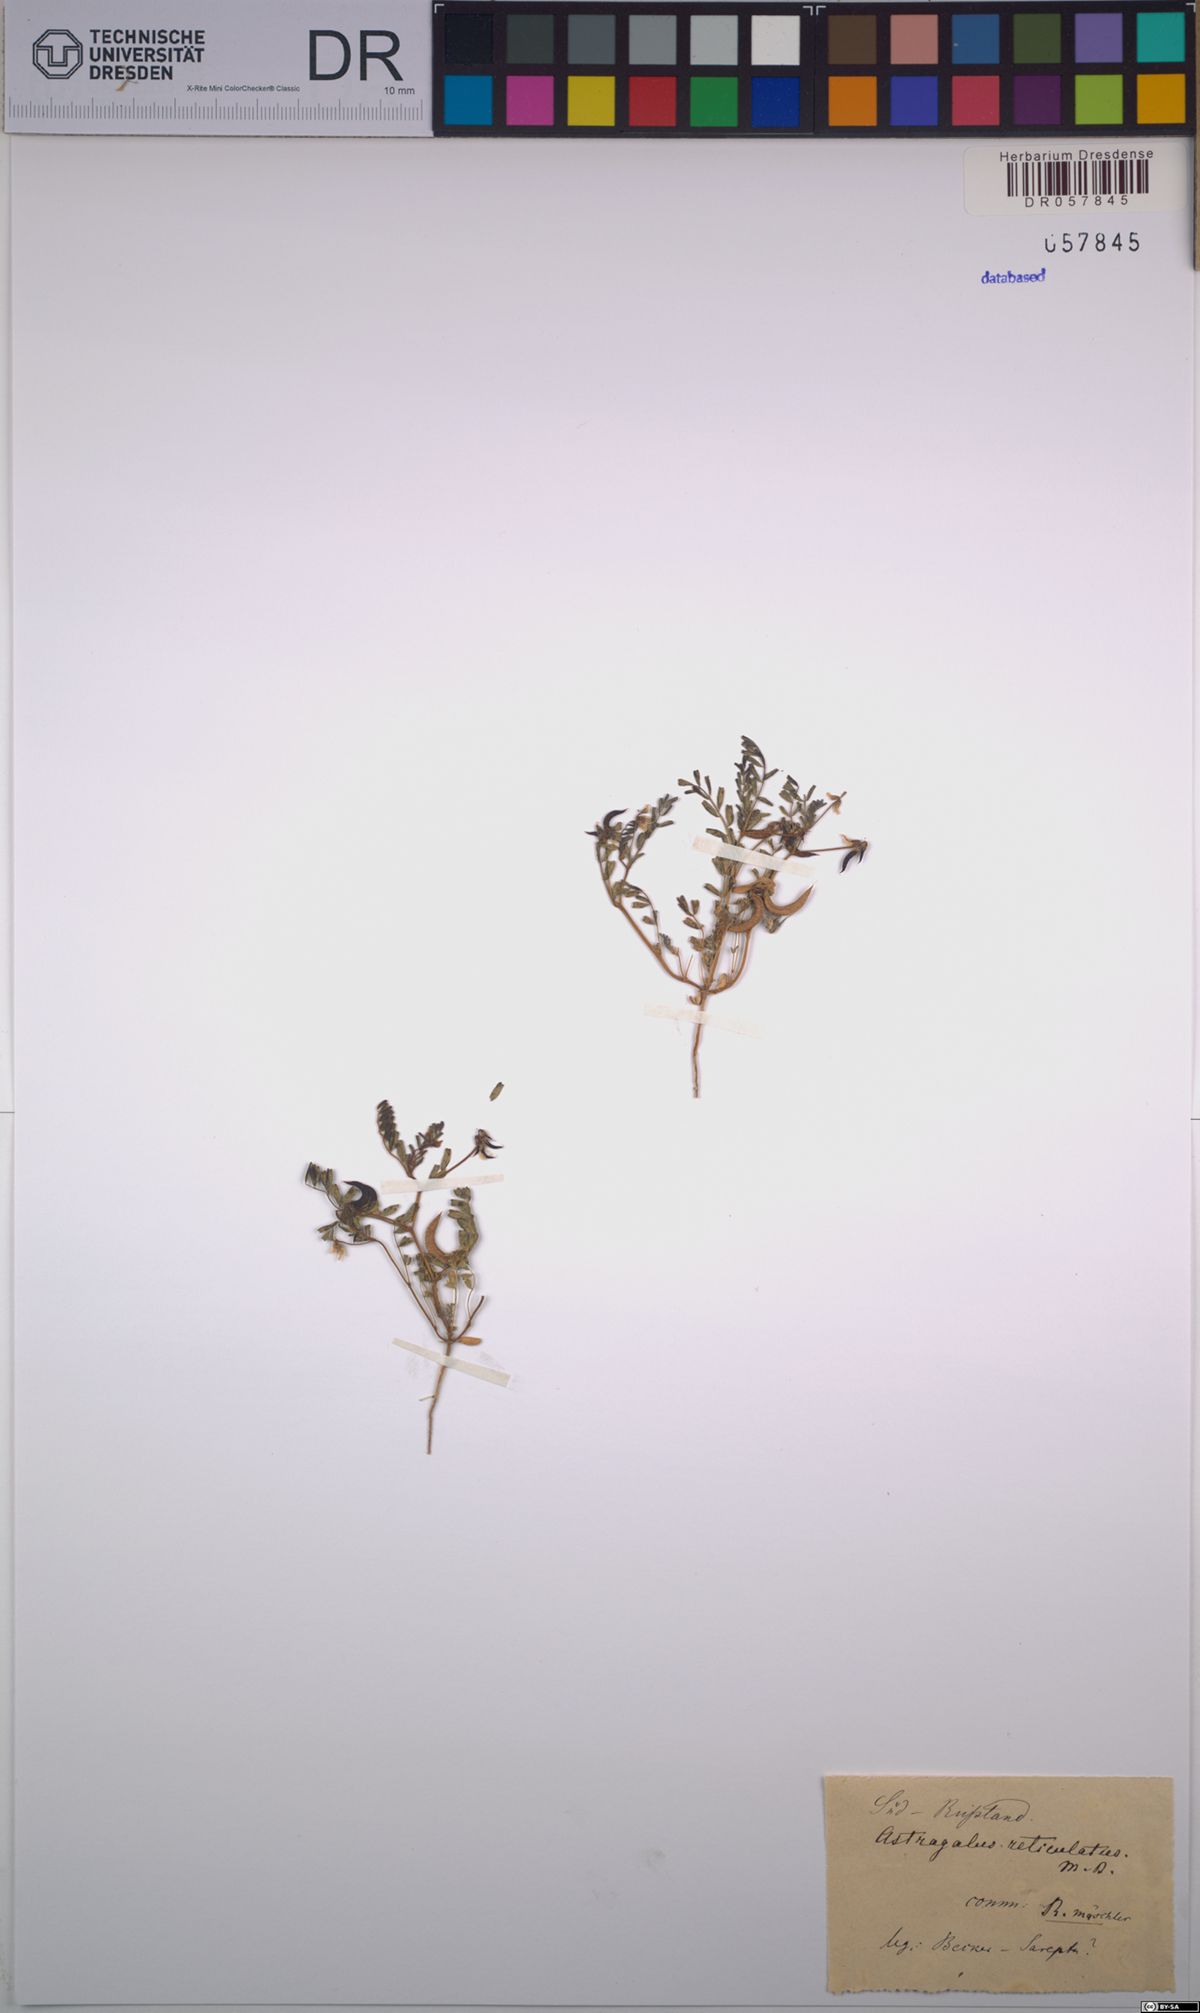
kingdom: Plantae
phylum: Tracheophyta
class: Magnoliopsida
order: Fabales
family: Fabaceae
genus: Astragalus
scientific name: Astragalus reticulatus
